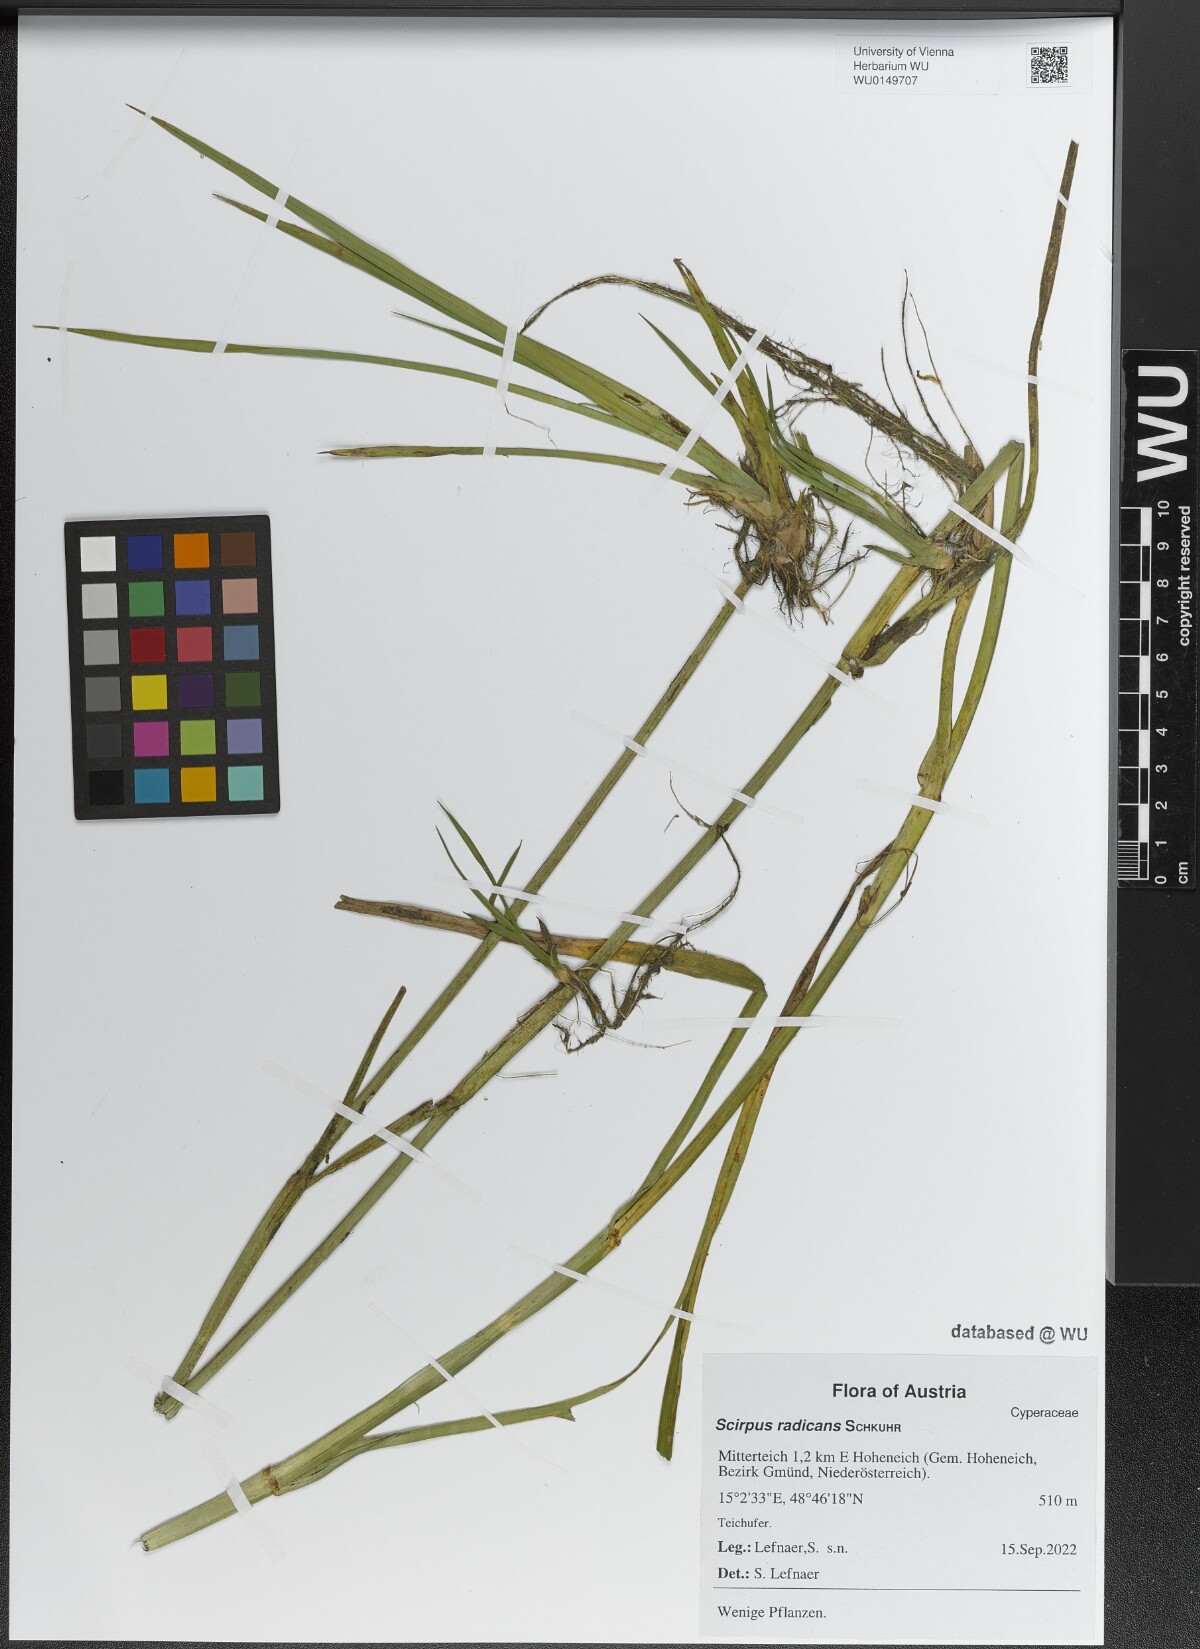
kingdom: Plantae
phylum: Tracheophyta
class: Liliopsida
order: Poales
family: Cyperaceae
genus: Scirpus
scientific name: Scirpus radicans
